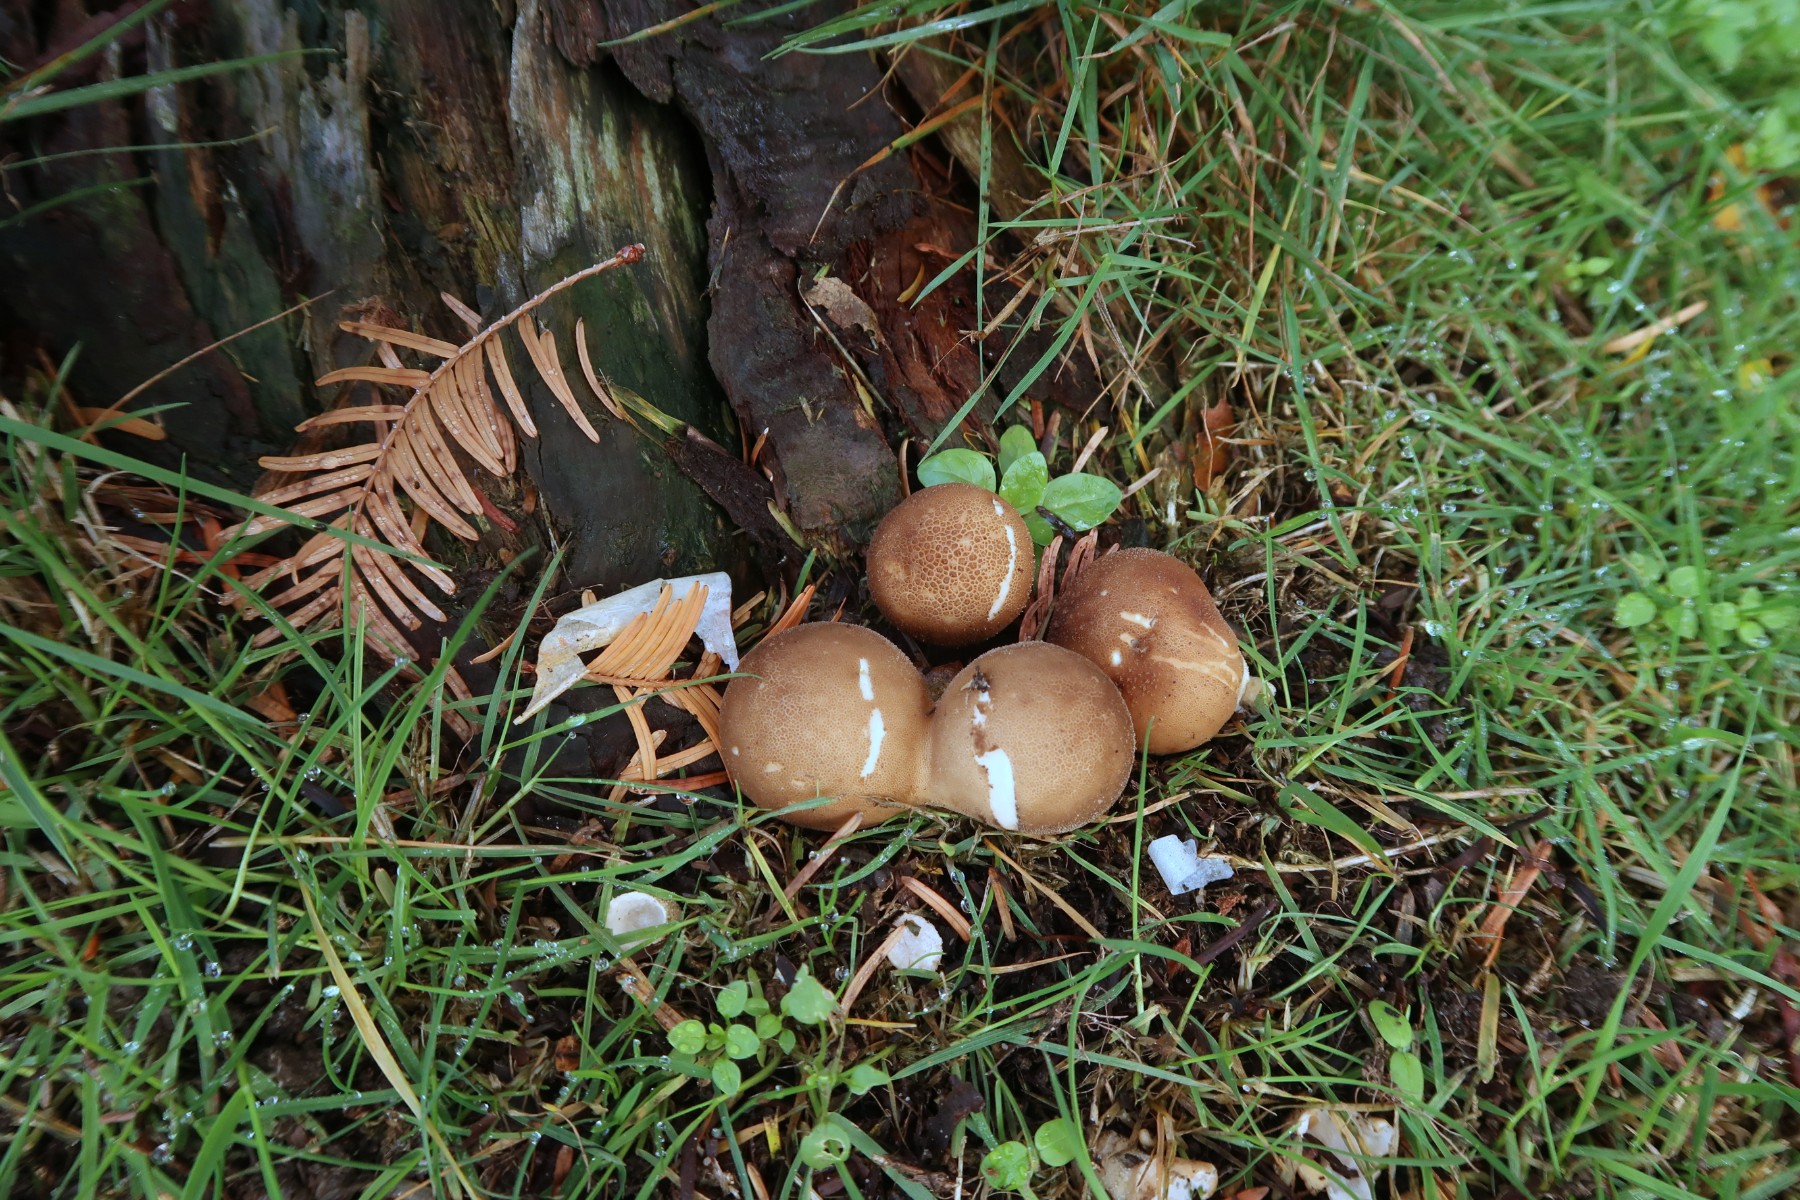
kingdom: Fungi
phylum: Basidiomycota
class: Agaricomycetes
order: Agaricales
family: Lycoperdaceae
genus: Apioperdon
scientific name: Apioperdon pyriforme
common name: pære-støvbold
